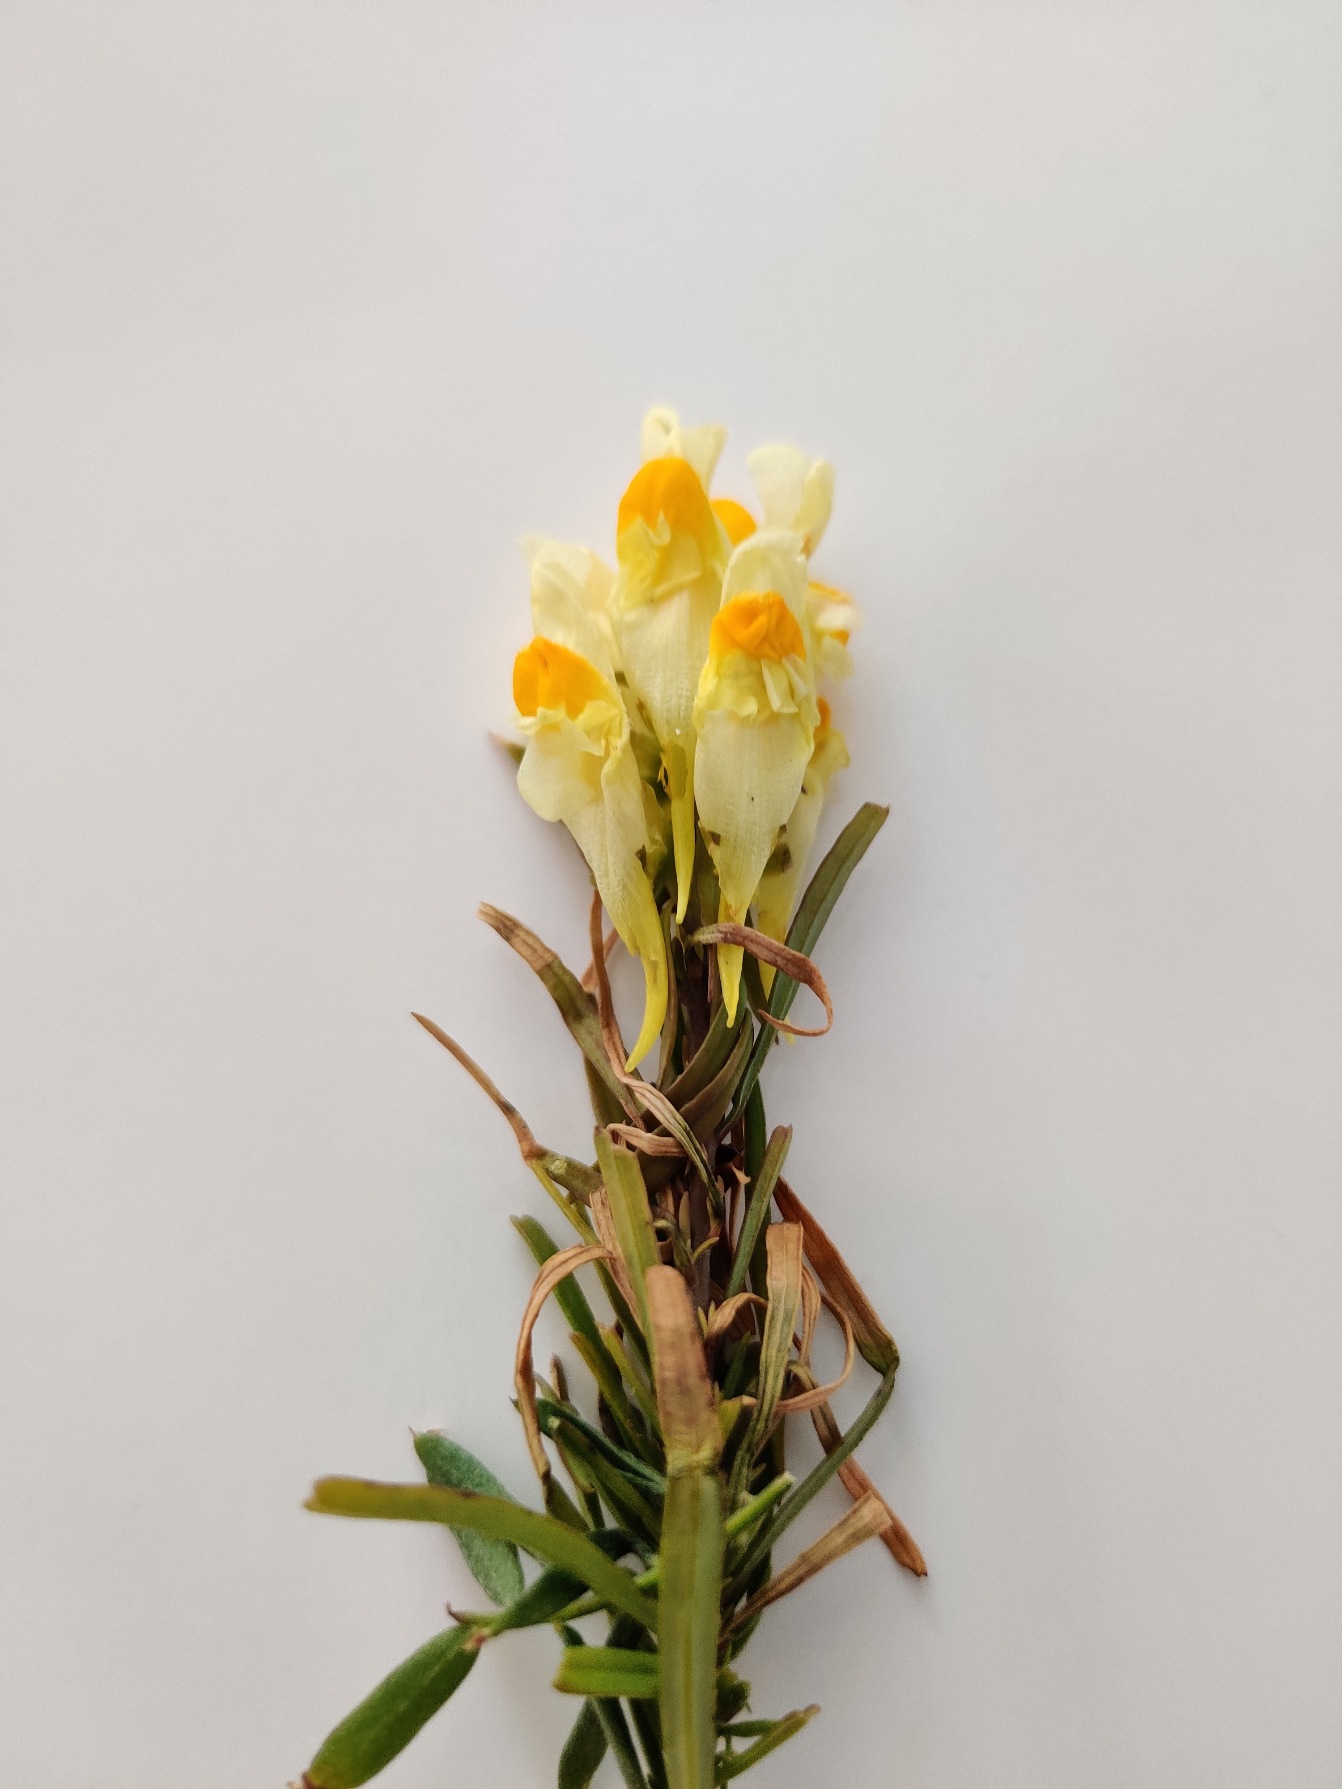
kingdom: Plantae
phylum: Tracheophyta
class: Magnoliopsida
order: Lamiales
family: Plantaginaceae
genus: Linaria
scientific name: Linaria vulgaris
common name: Almindelig torskemund
